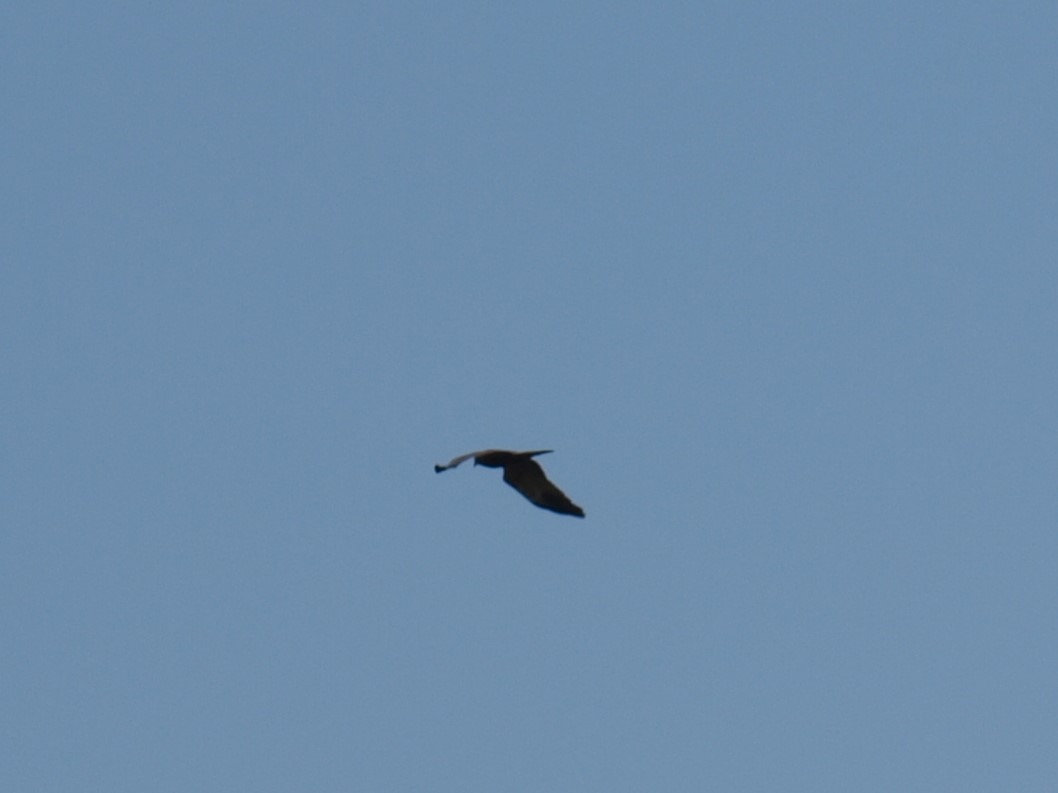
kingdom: Animalia
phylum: Chordata
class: Aves
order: Accipitriformes
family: Accipitridae
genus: Circus
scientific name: Circus aeruginosus
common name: Rørhøg
